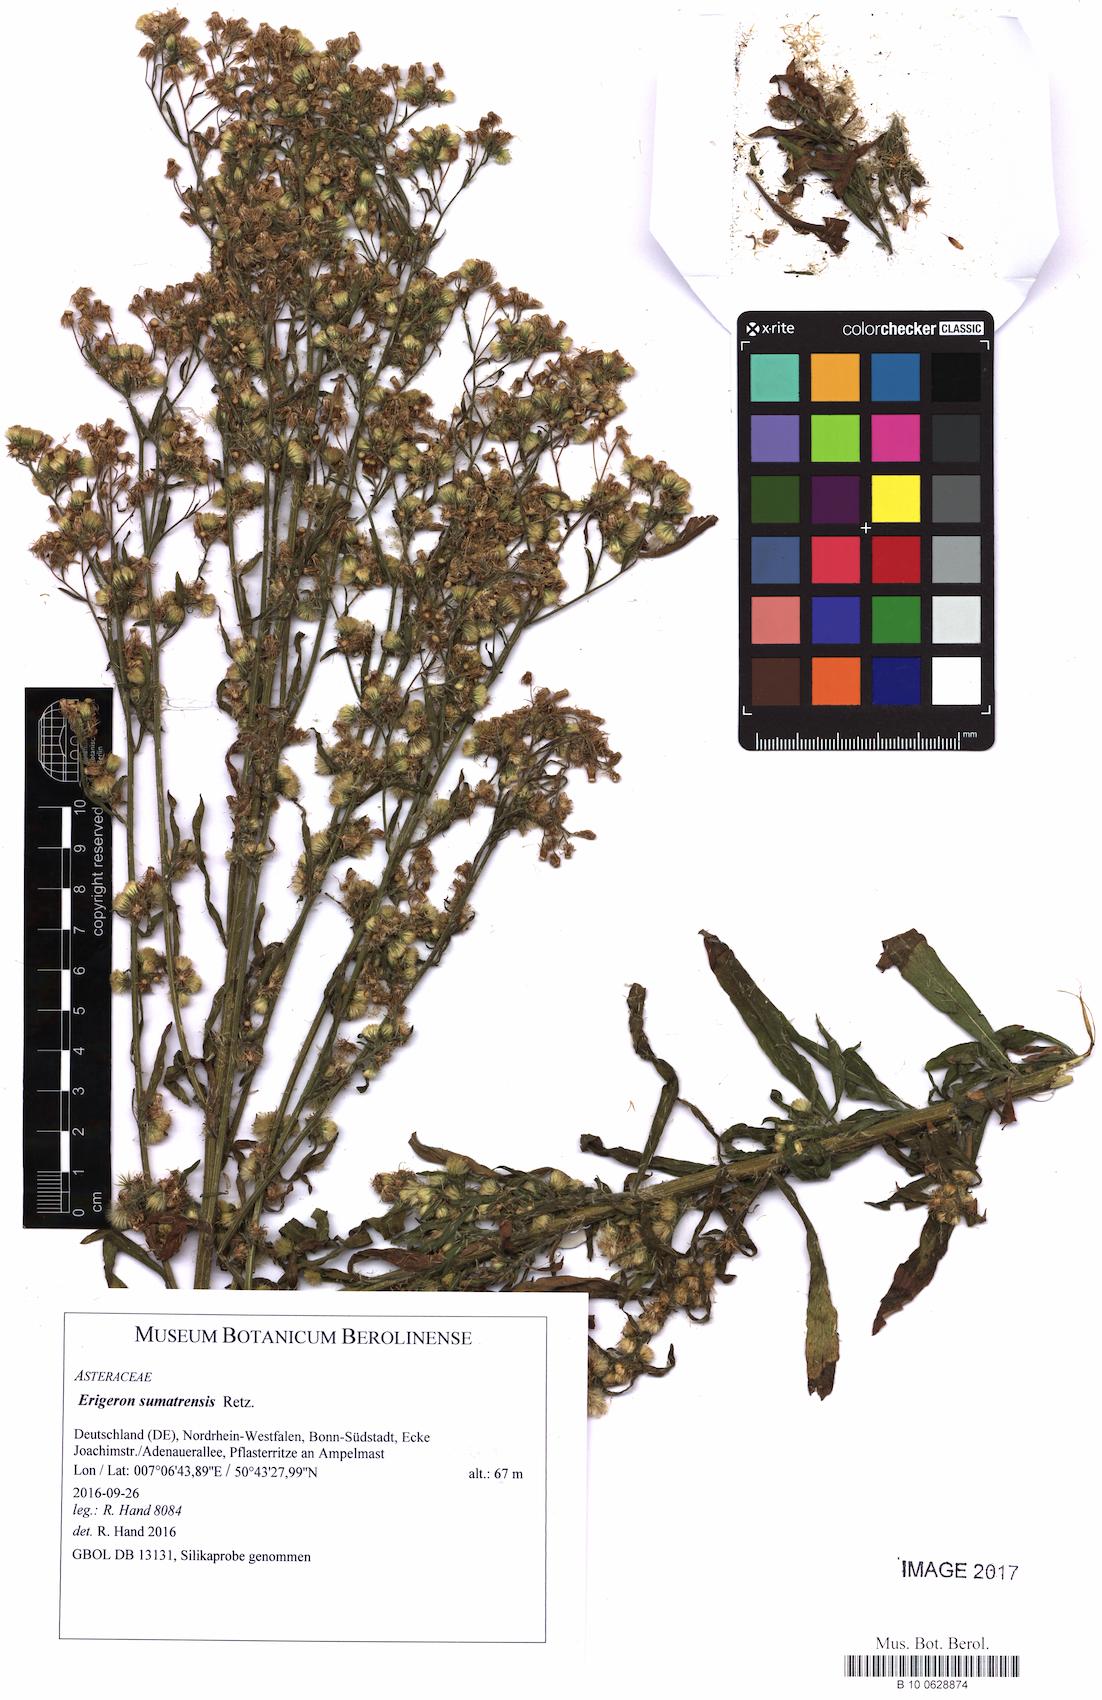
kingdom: Plantae
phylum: Tracheophyta
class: Magnoliopsida
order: Asterales
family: Asteraceae
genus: Erigeron
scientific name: Erigeron sumatrensis
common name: Daisy
